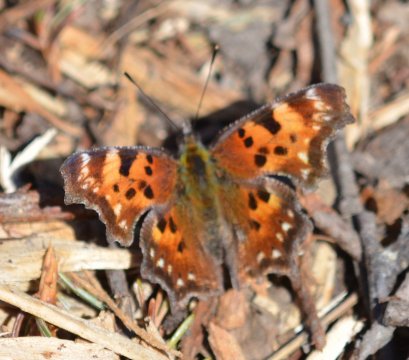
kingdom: Animalia
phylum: Arthropoda
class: Insecta
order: Lepidoptera
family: Nymphalidae
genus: Polygonia
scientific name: Polygonia faunus
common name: Green Comma
